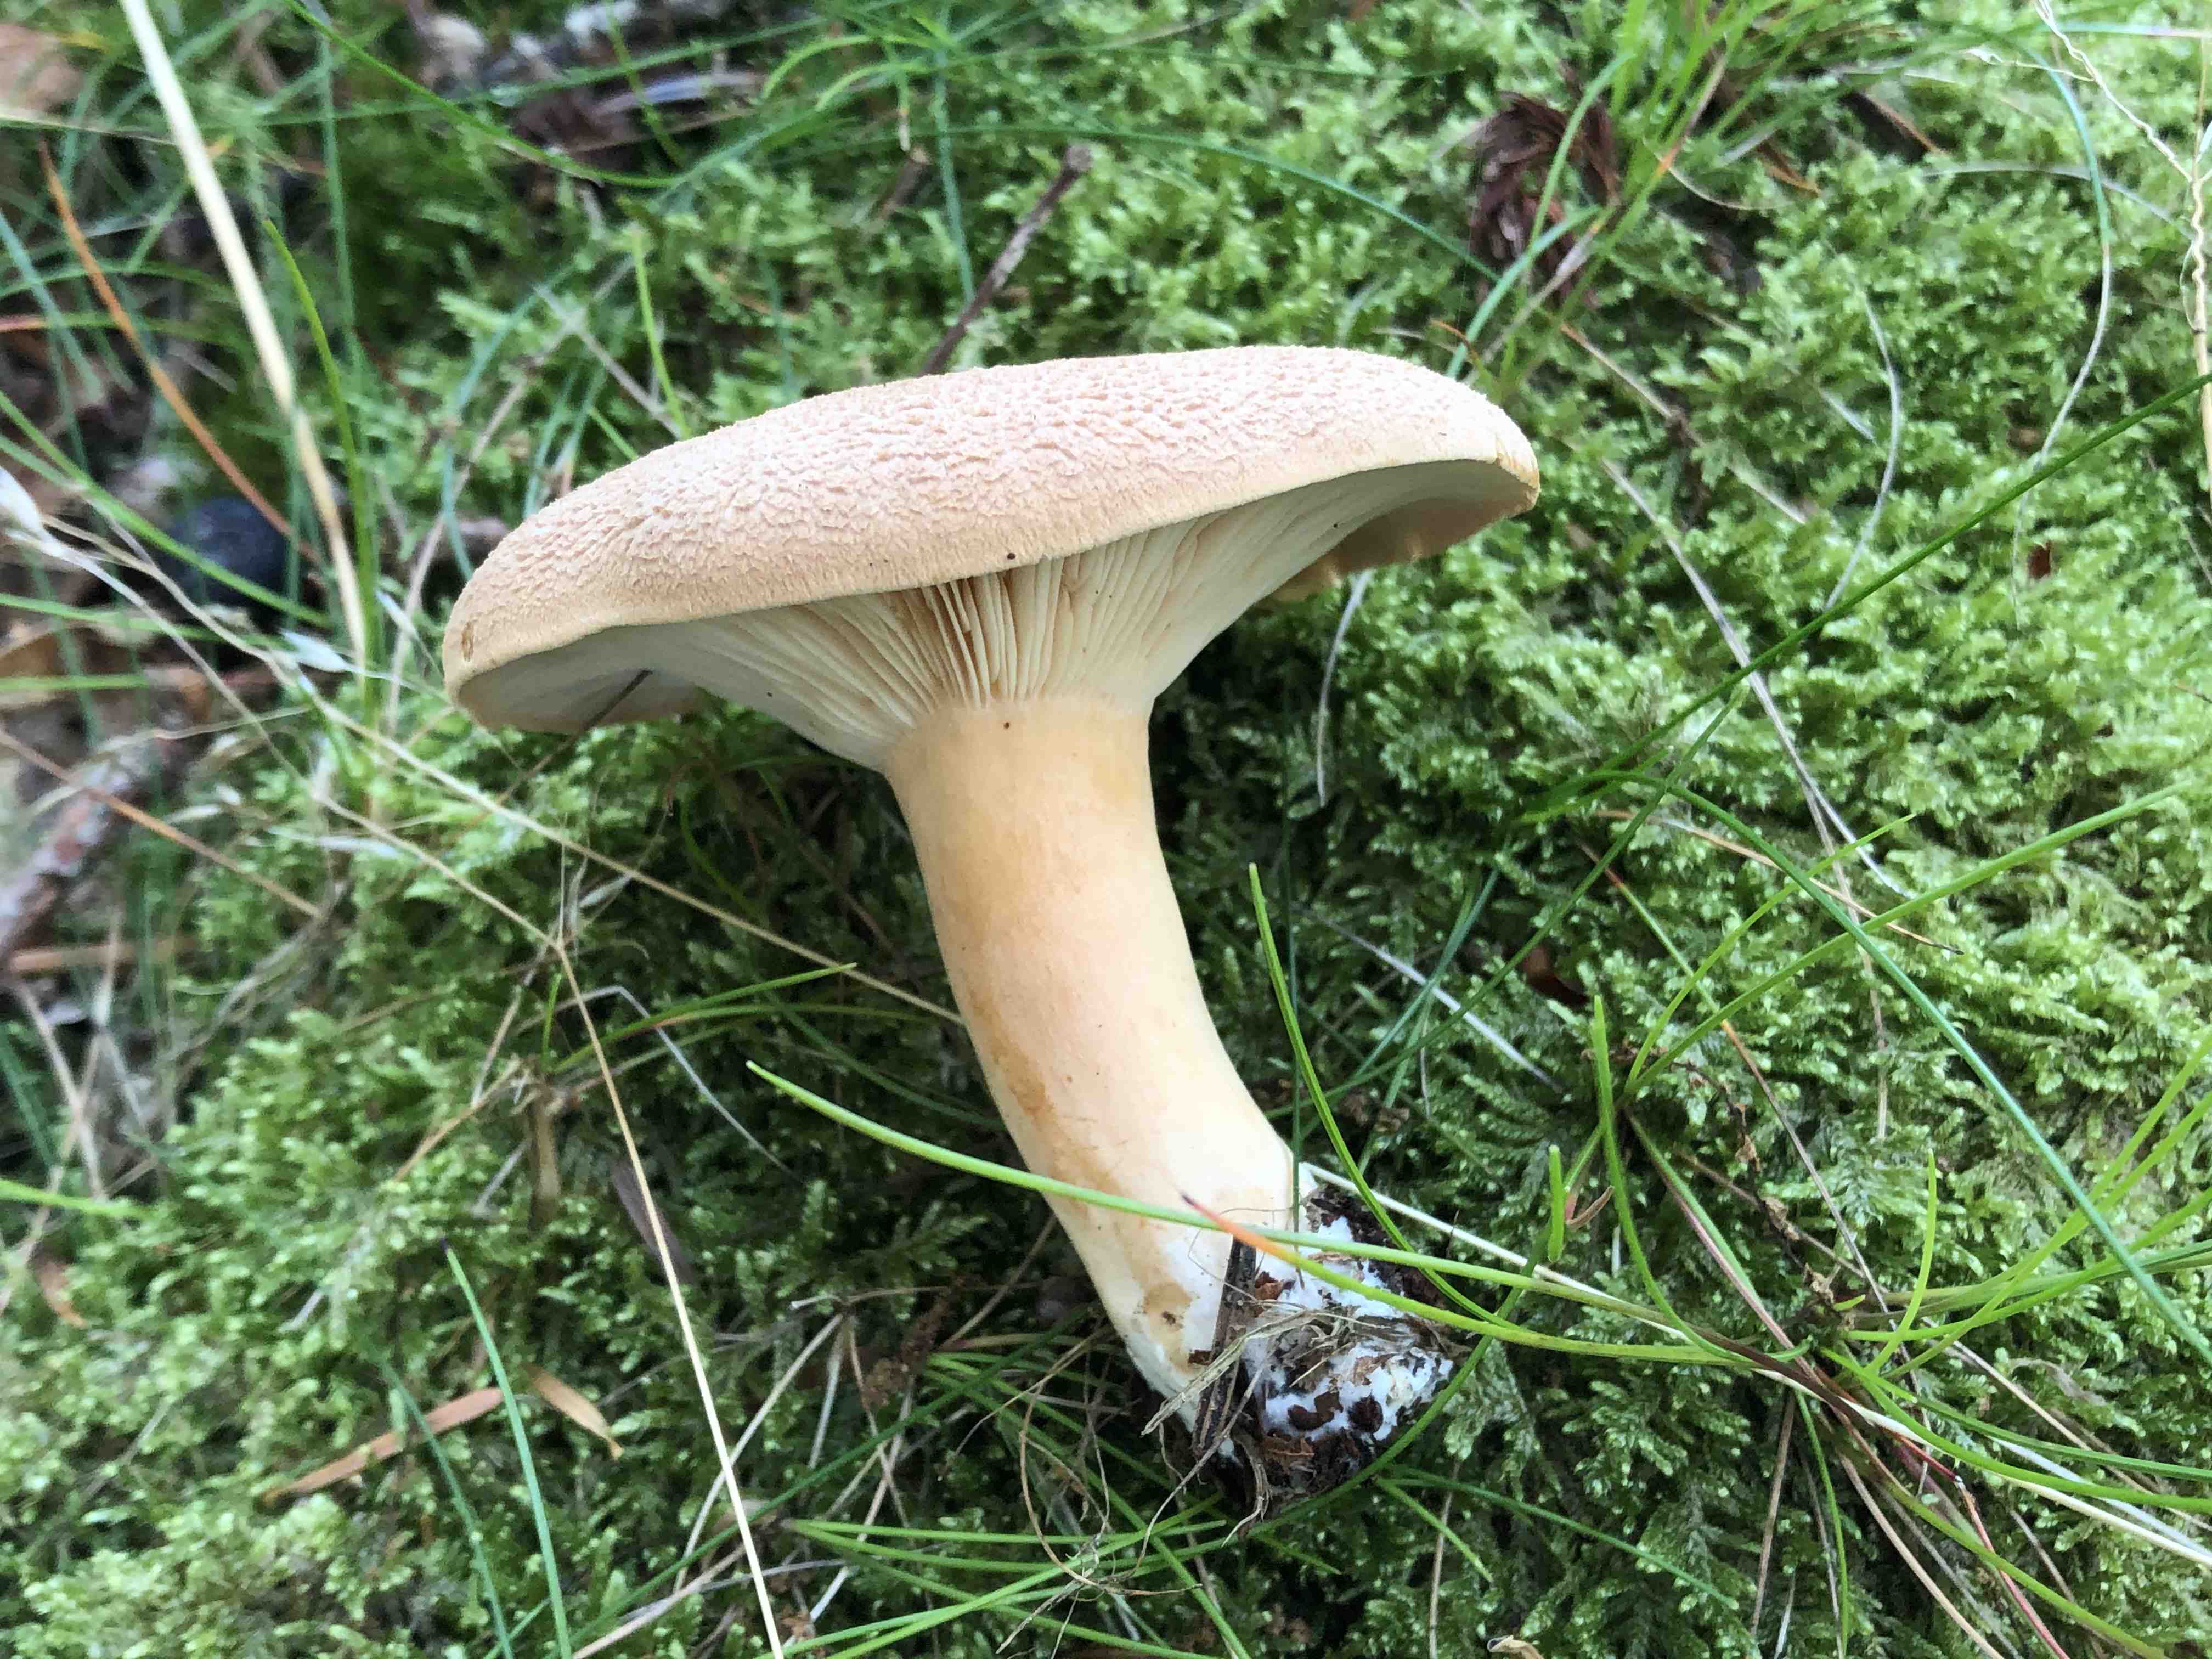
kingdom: Fungi
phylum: Basidiomycota
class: Agaricomycetes
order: Russulales
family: Russulaceae
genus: Lactarius
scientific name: Lactarius helvus
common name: mose-mælkehat
